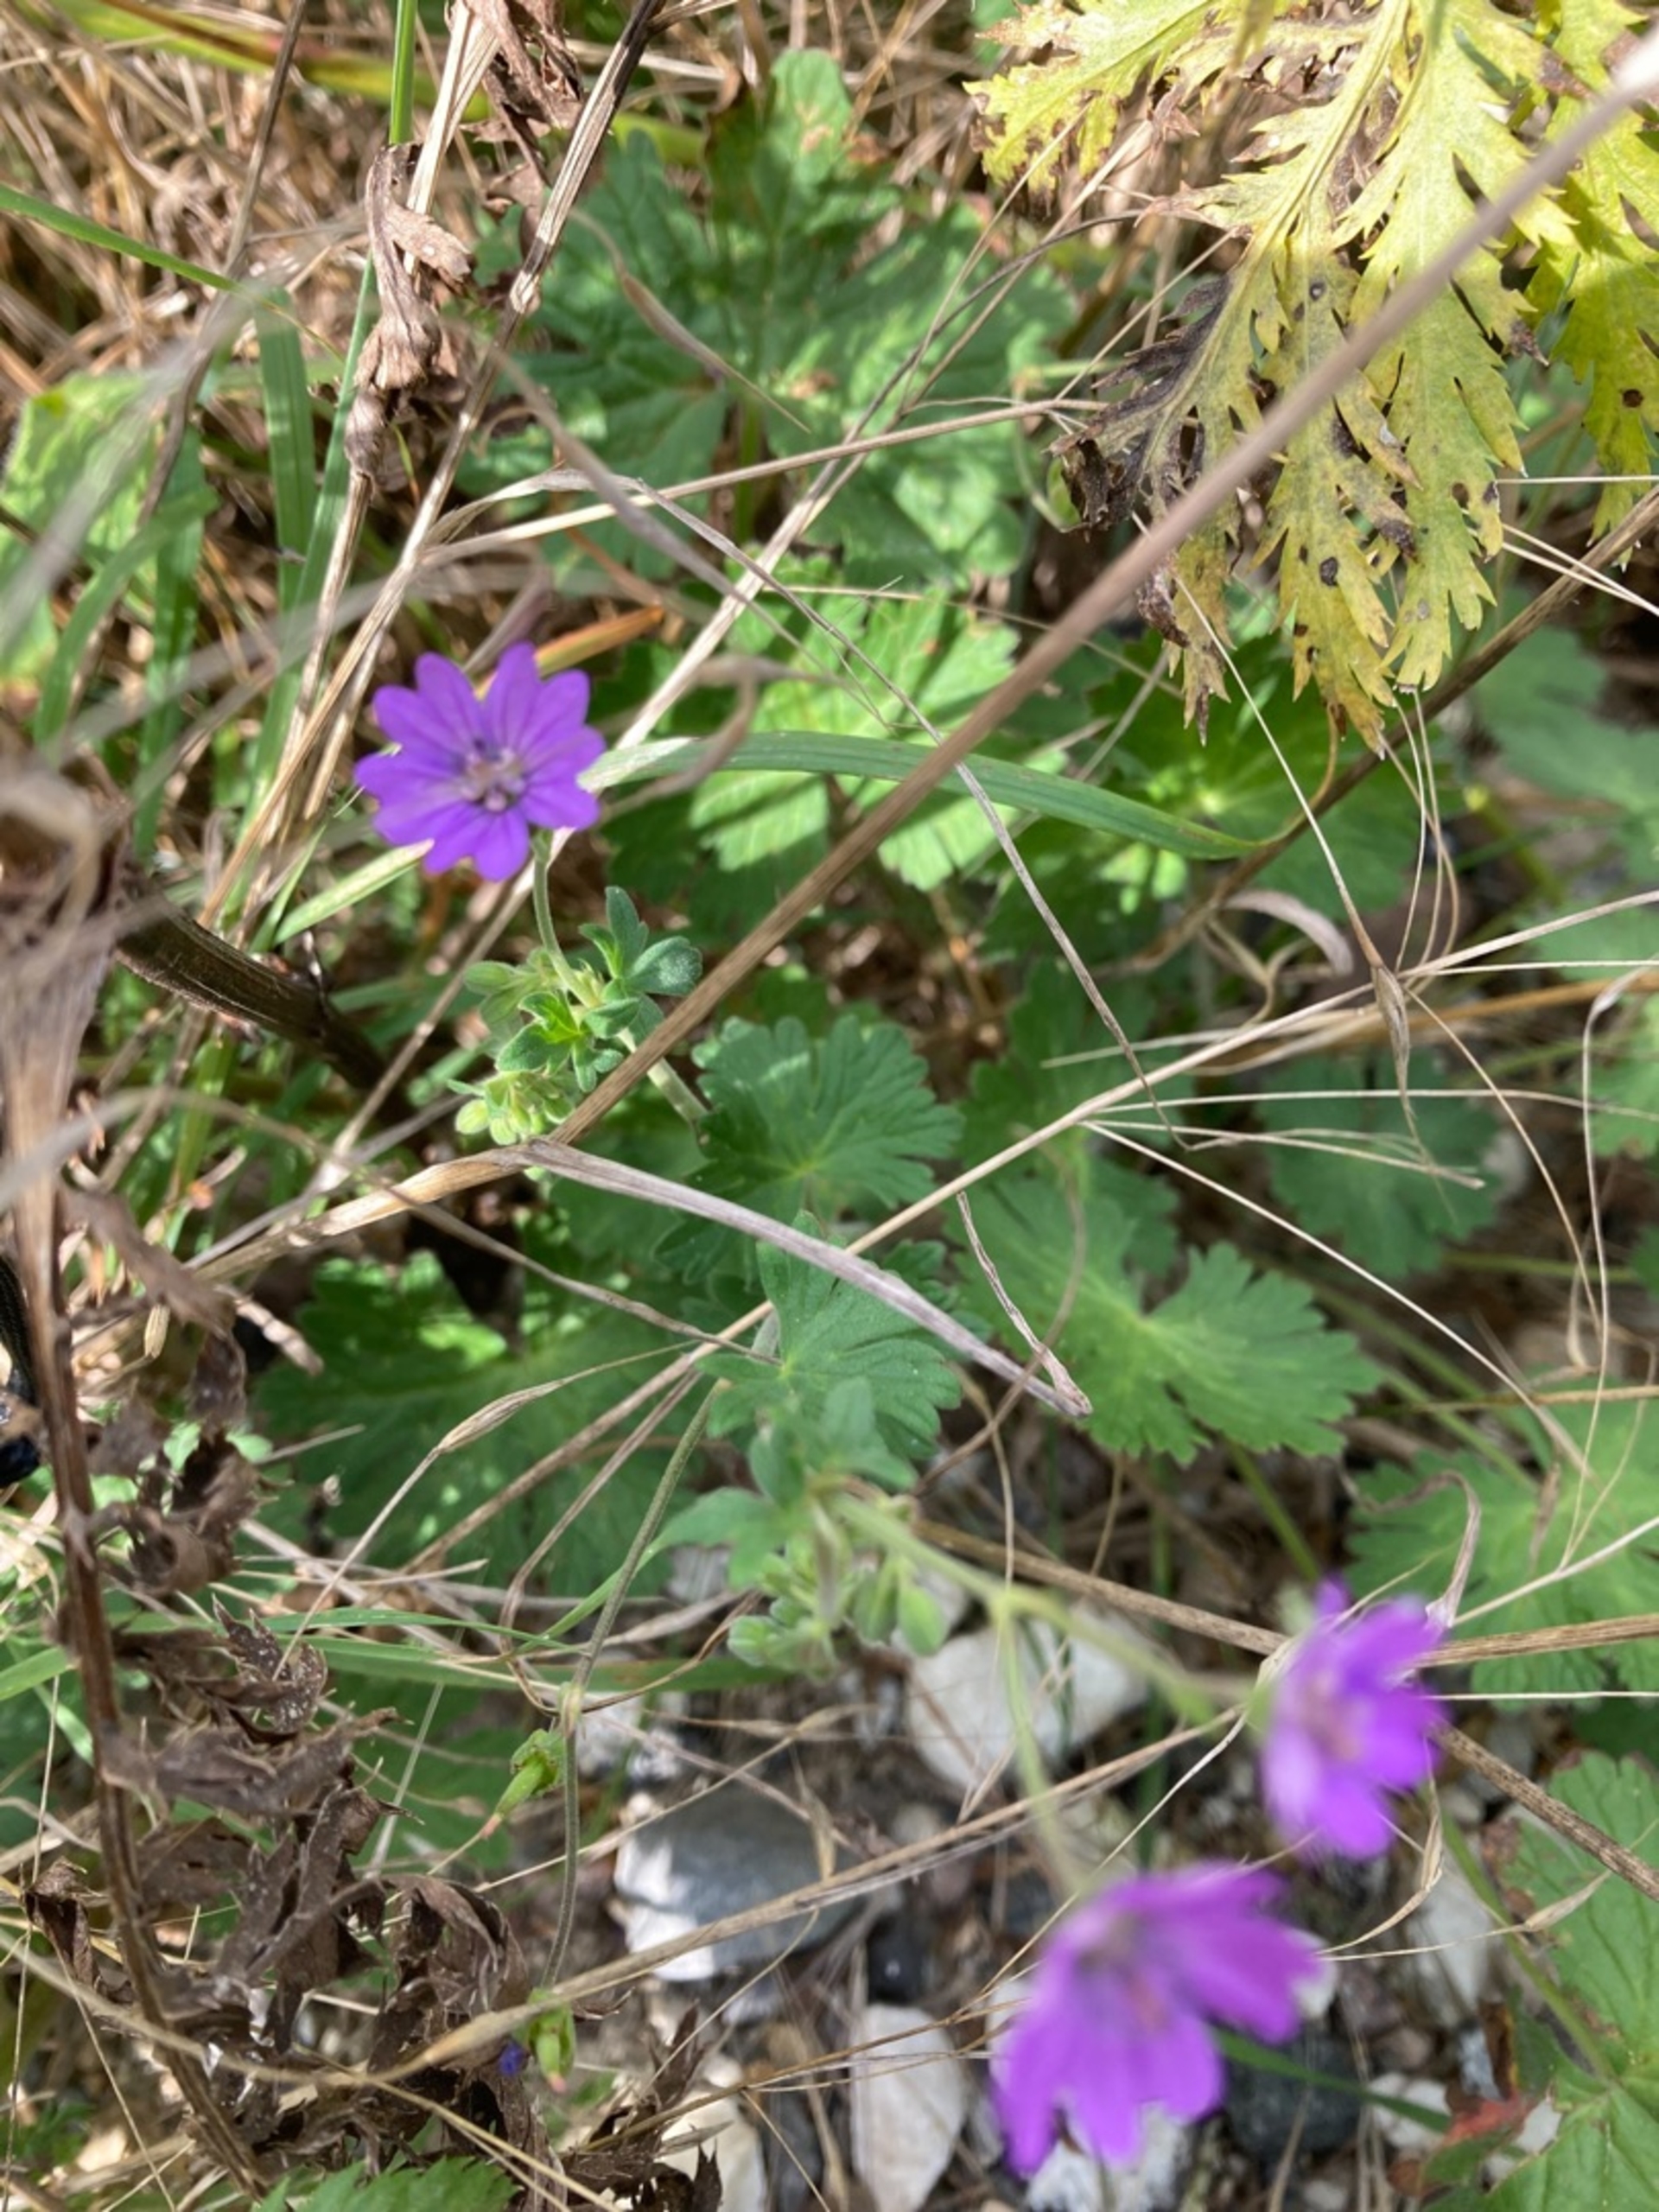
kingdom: Plantae
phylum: Tracheophyta
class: Magnoliopsida
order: Geraniales
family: Geraniaceae
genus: Geranium
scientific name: Geranium pyrenaicum
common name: Pyrenæisk storkenæb
